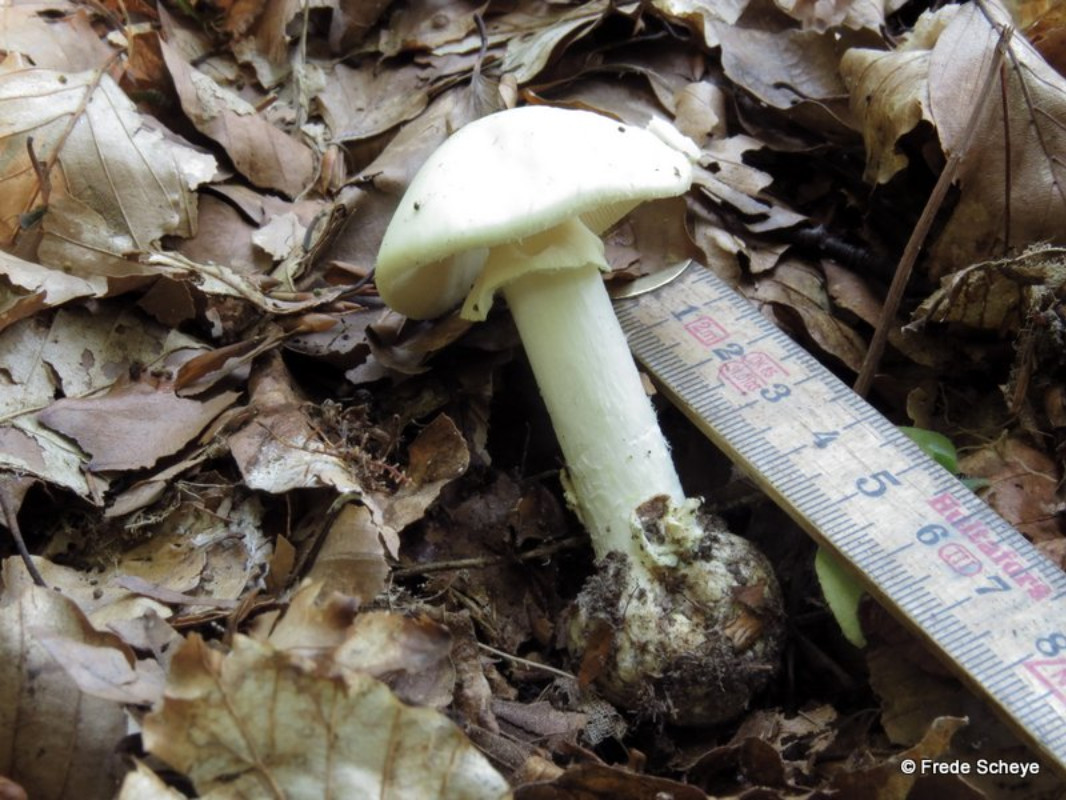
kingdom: Fungi
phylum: Basidiomycota
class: Agaricomycetes
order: Agaricales
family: Amanitaceae
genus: Amanita
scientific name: Amanita phalloides
